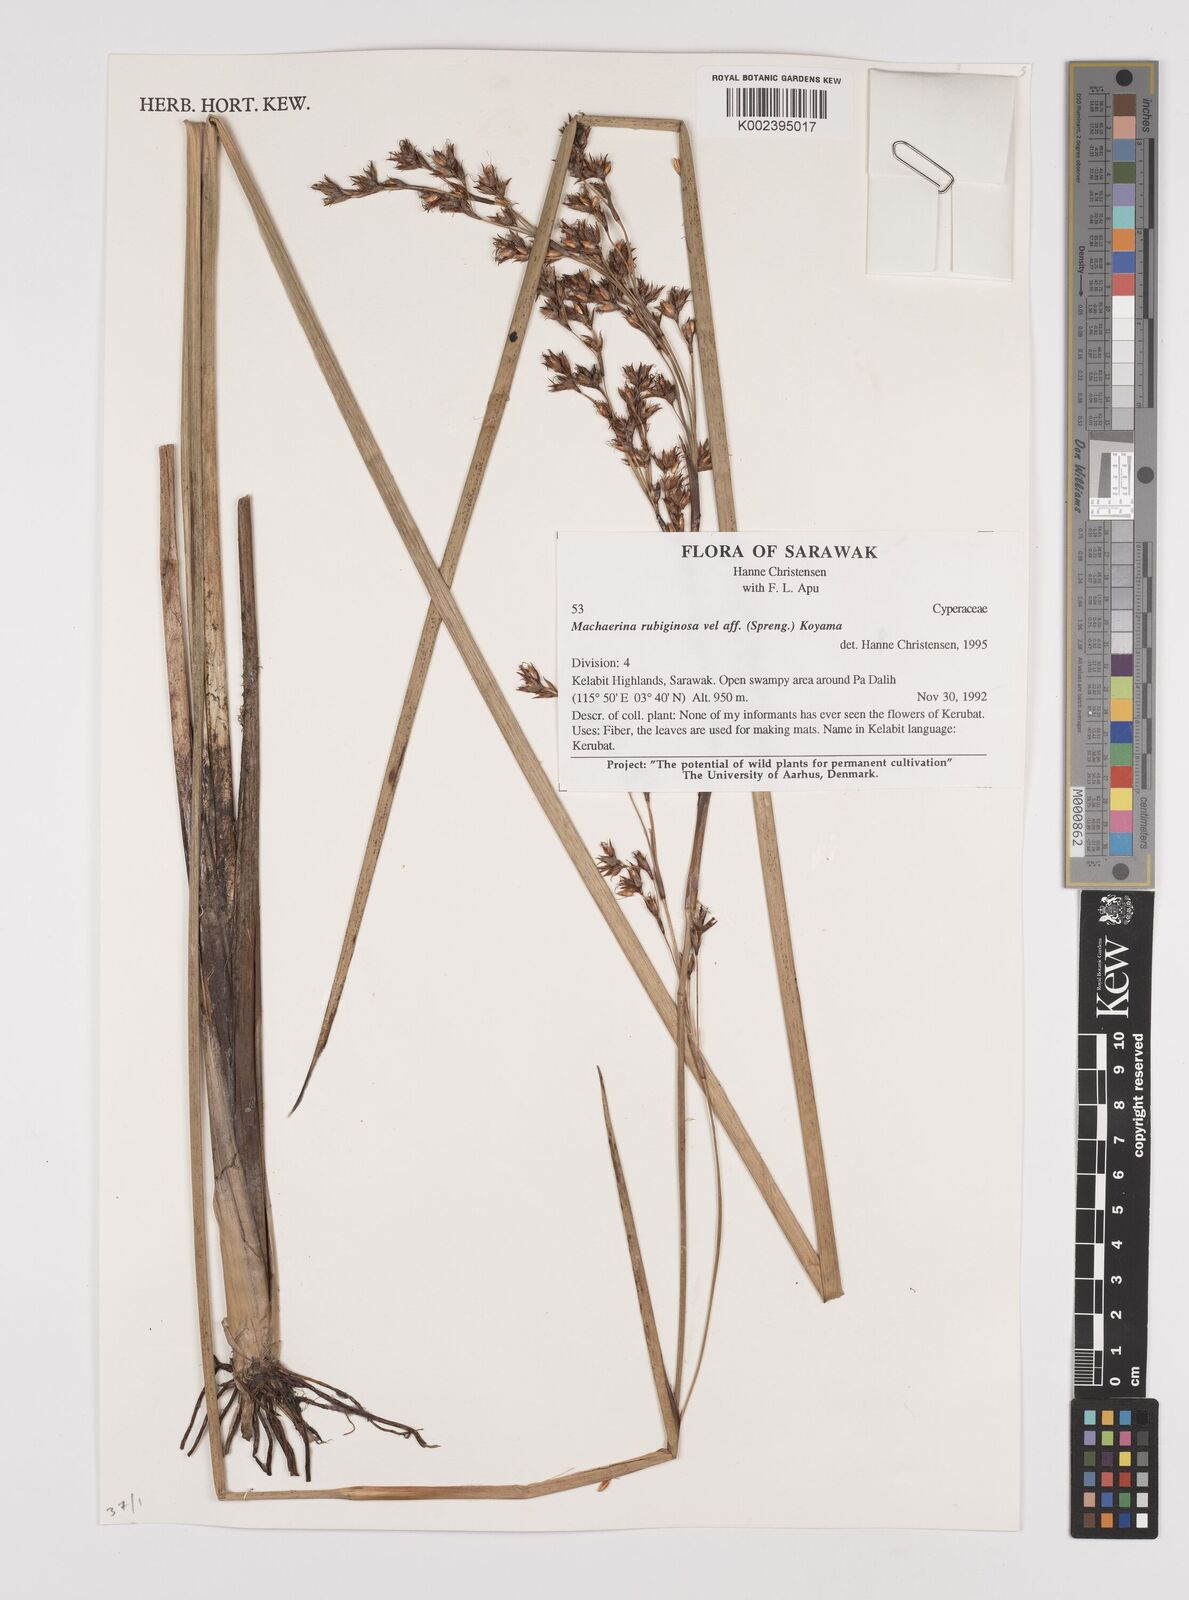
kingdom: Plantae
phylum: Tracheophyta
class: Liliopsida
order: Poales
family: Cyperaceae
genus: Machaerina
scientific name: Machaerina rubiginosa
